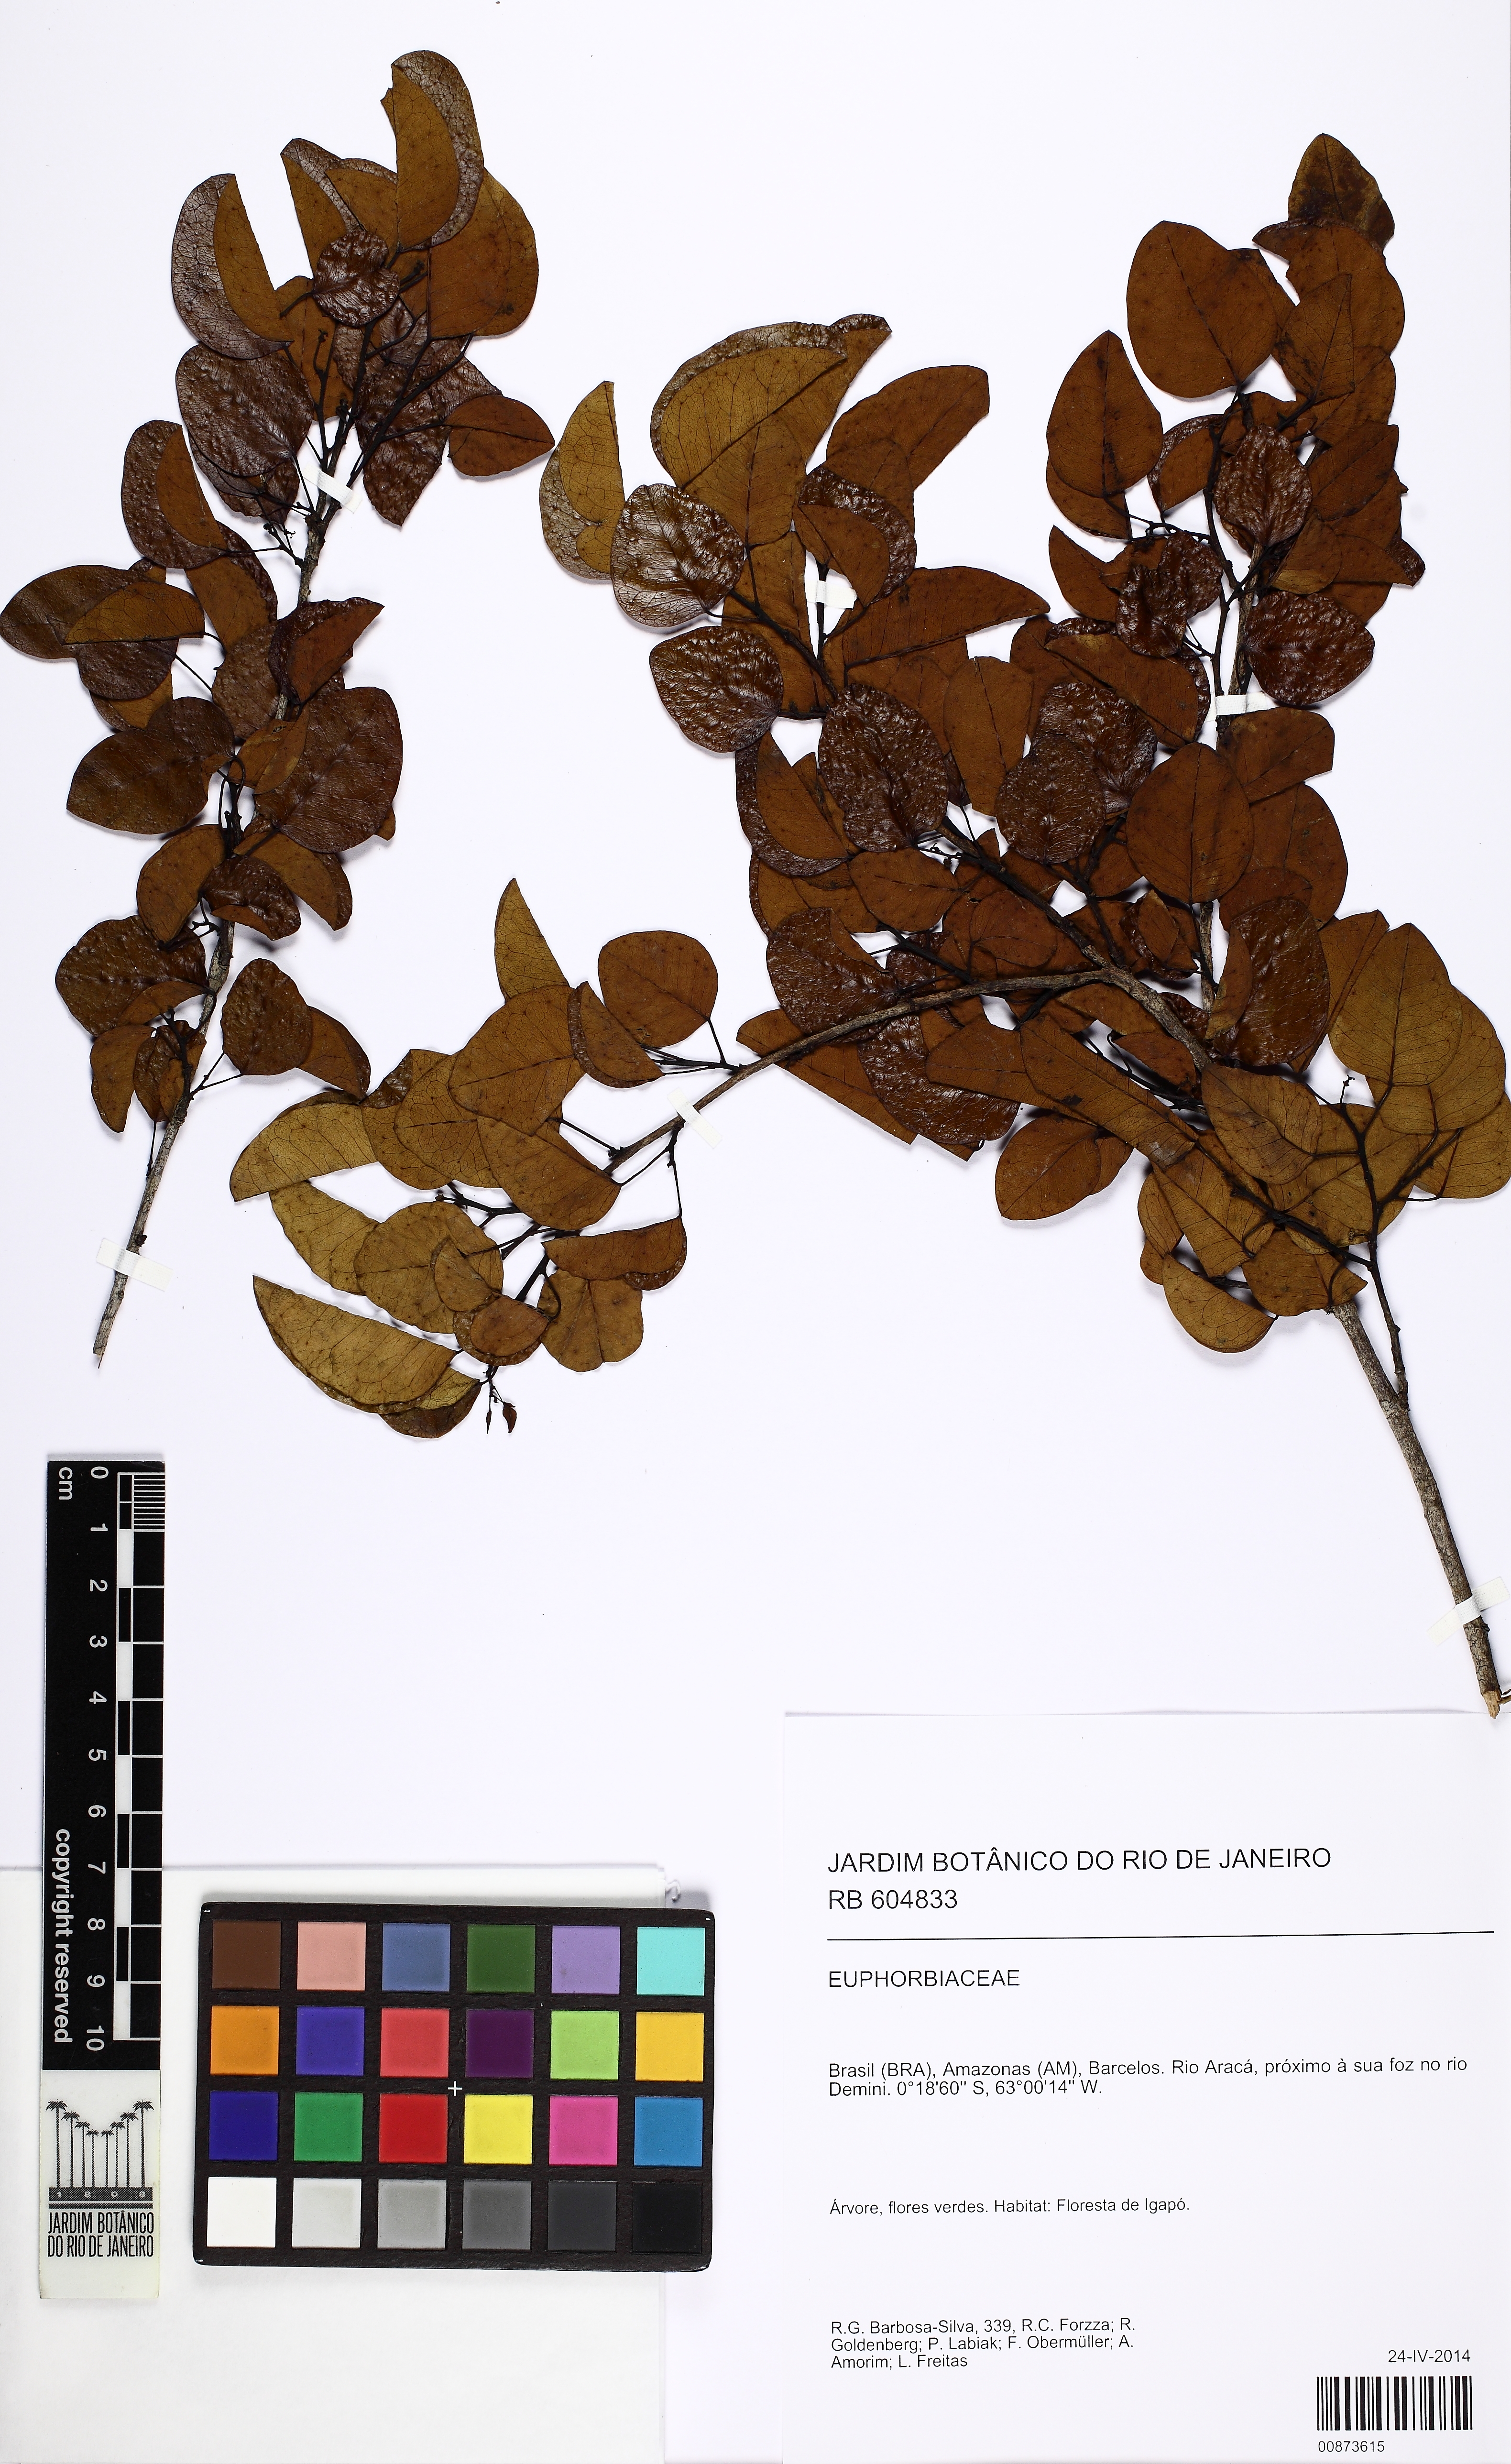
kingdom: Plantae
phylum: Tracheophyta
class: Magnoliopsida
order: Malpighiales
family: Euphorbiaceae
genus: Maprounea
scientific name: Maprounea
